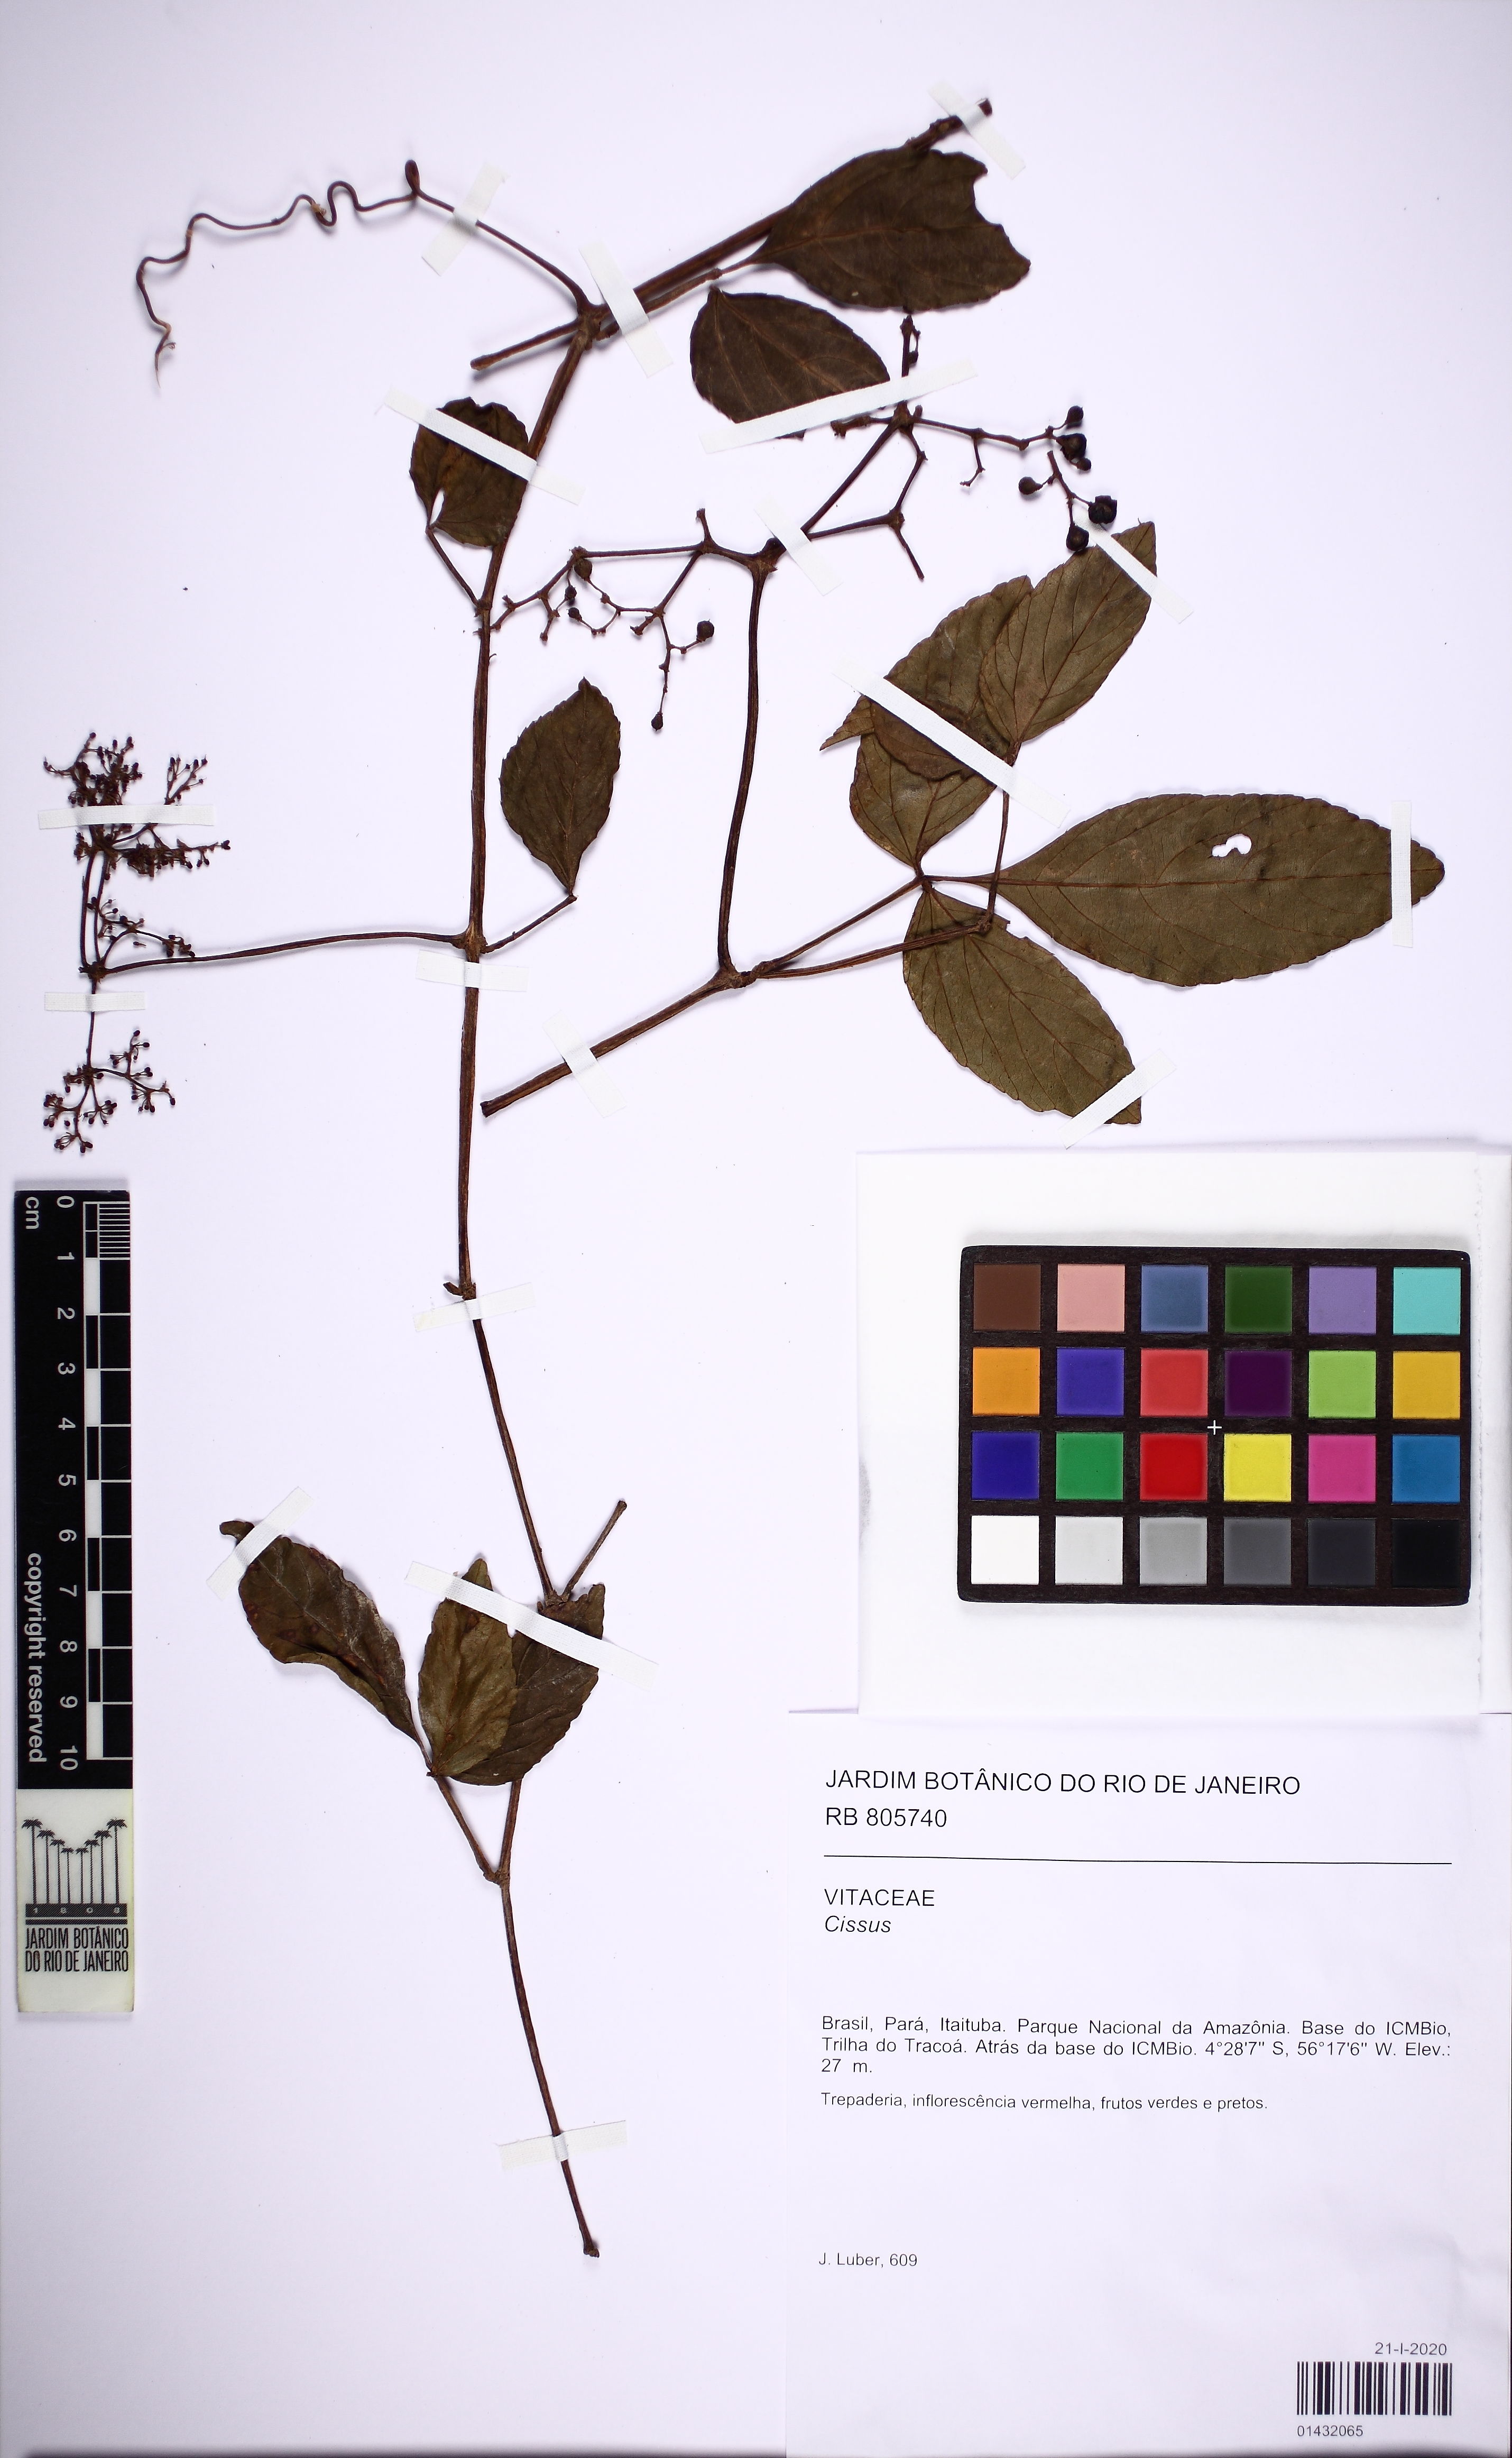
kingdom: Plantae
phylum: Tracheophyta
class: Magnoliopsida
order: Vitales
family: Vitaceae
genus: Cissus
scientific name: Cissus
